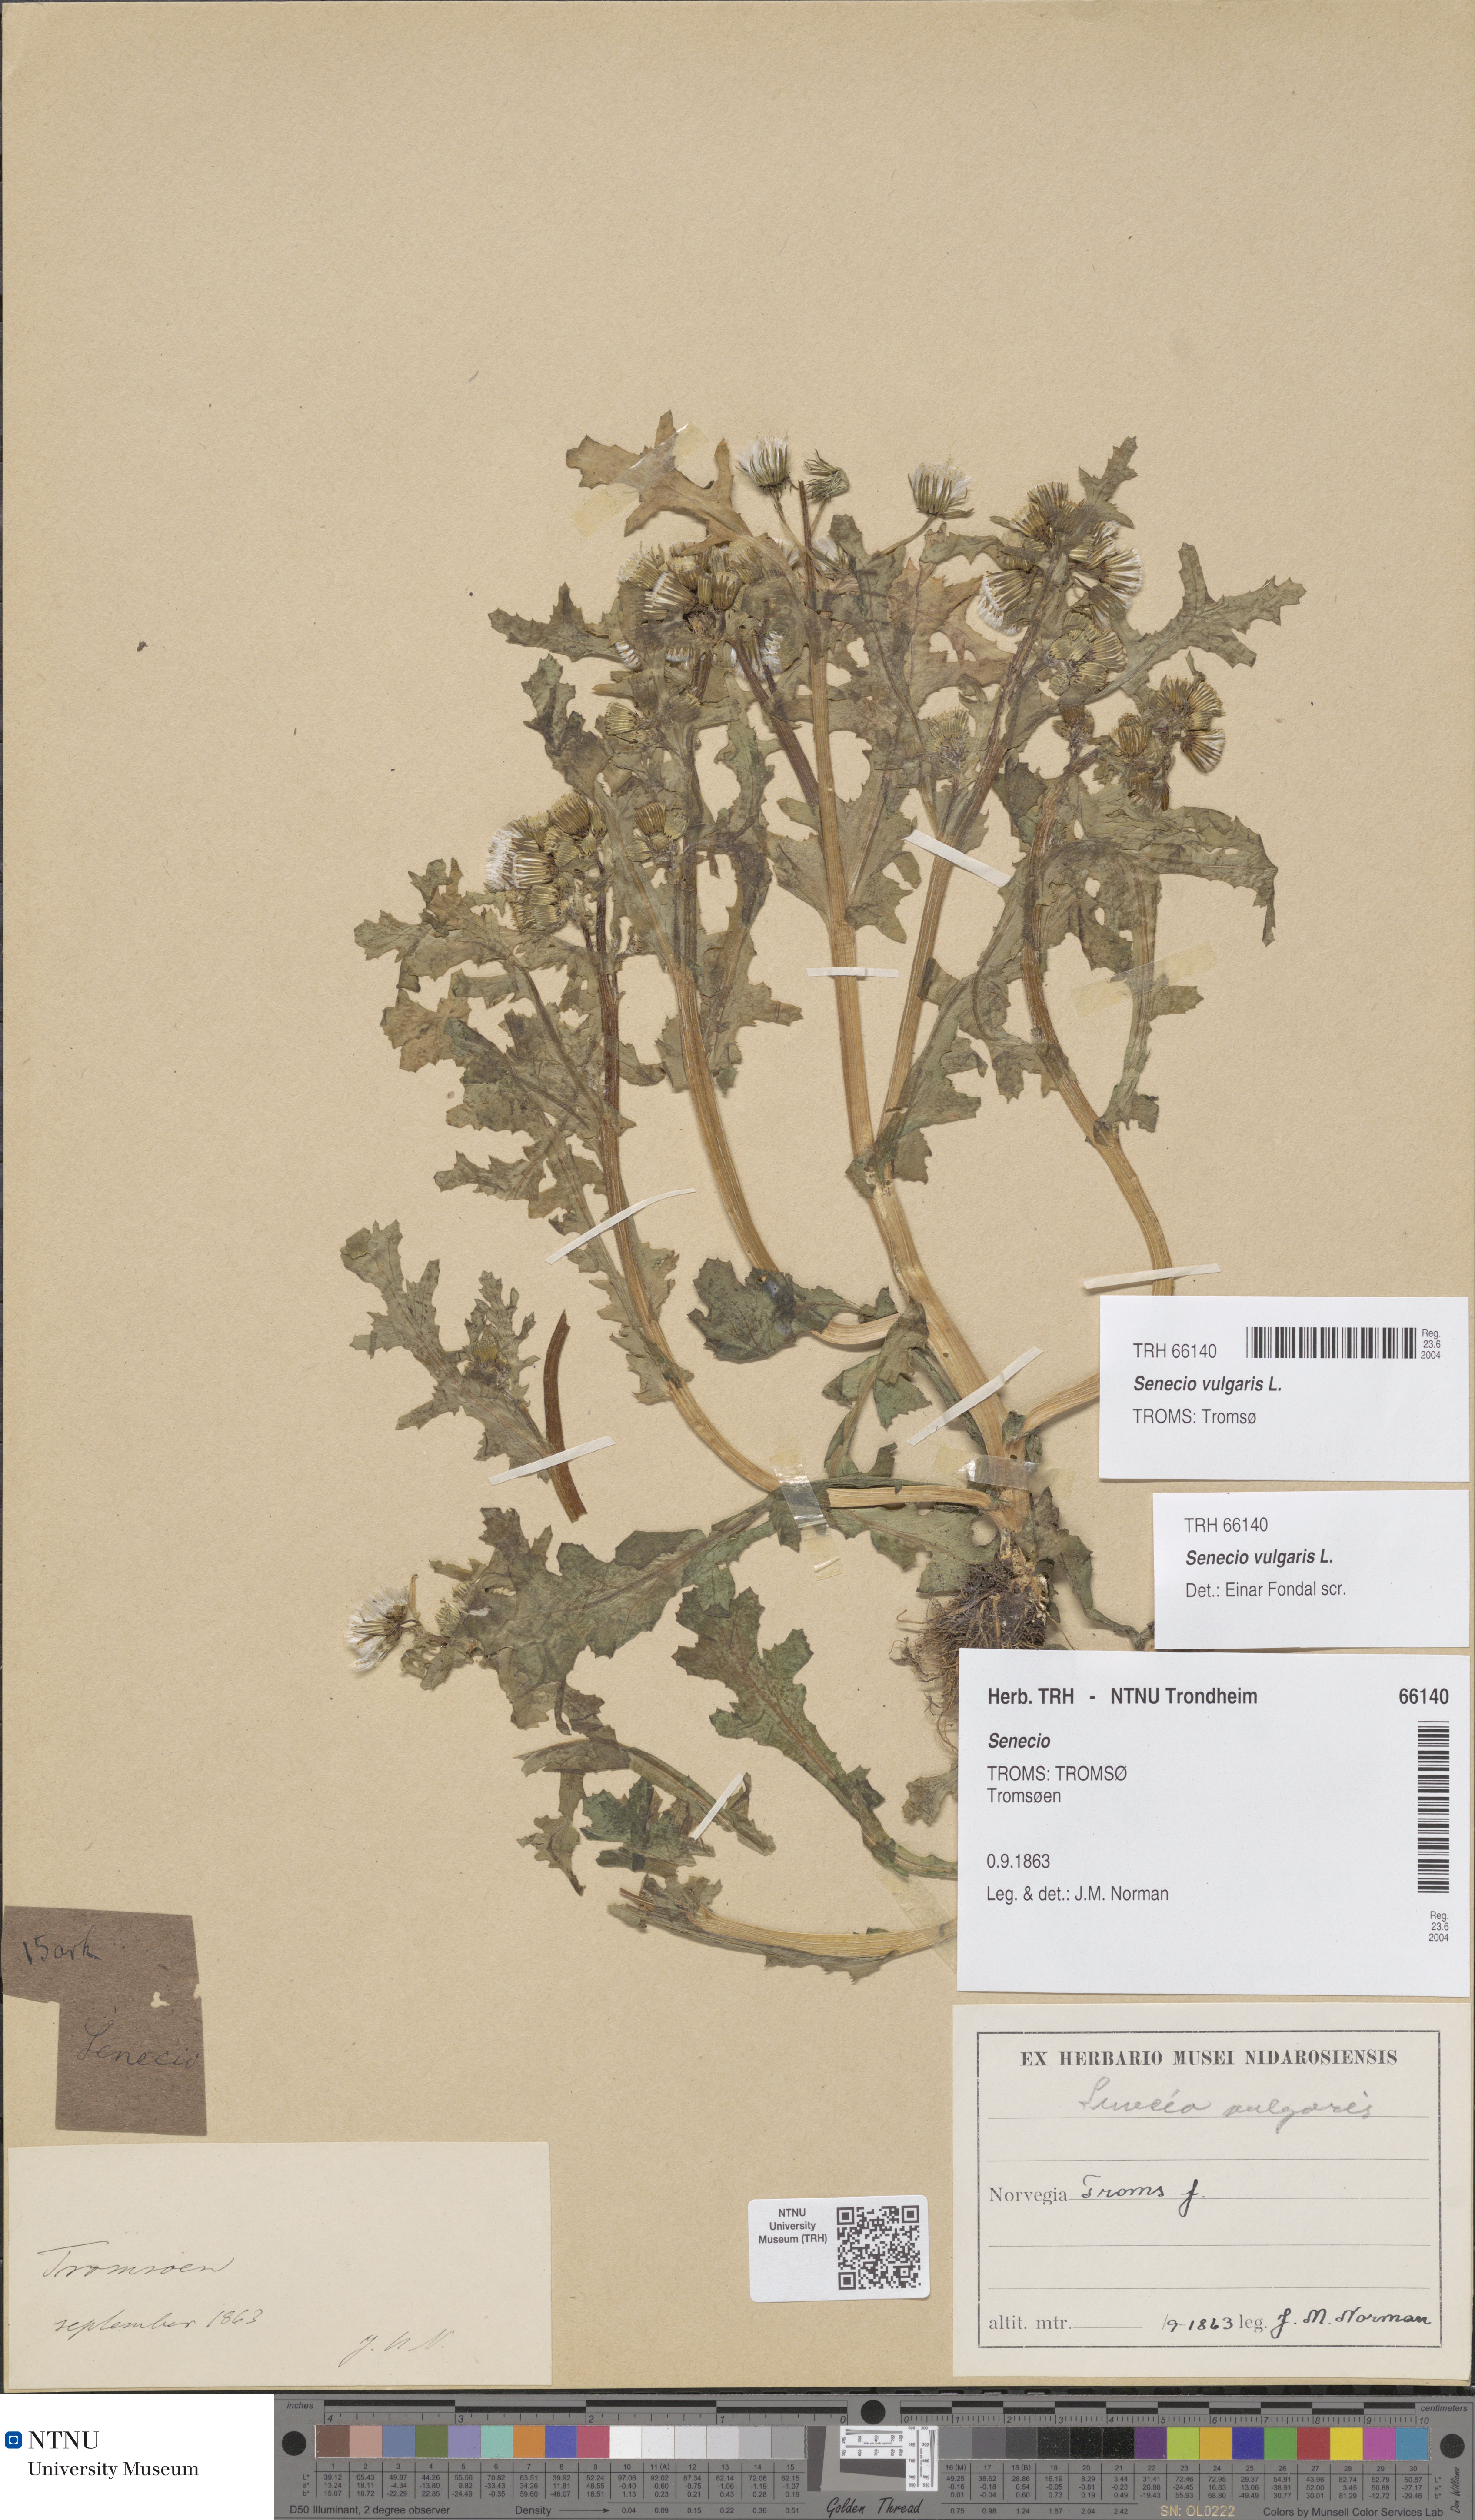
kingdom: Plantae
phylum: Tracheophyta
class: Magnoliopsida
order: Asterales
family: Asteraceae
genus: Senecio
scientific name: Senecio vulgaris
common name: Old-man-in-the-spring
